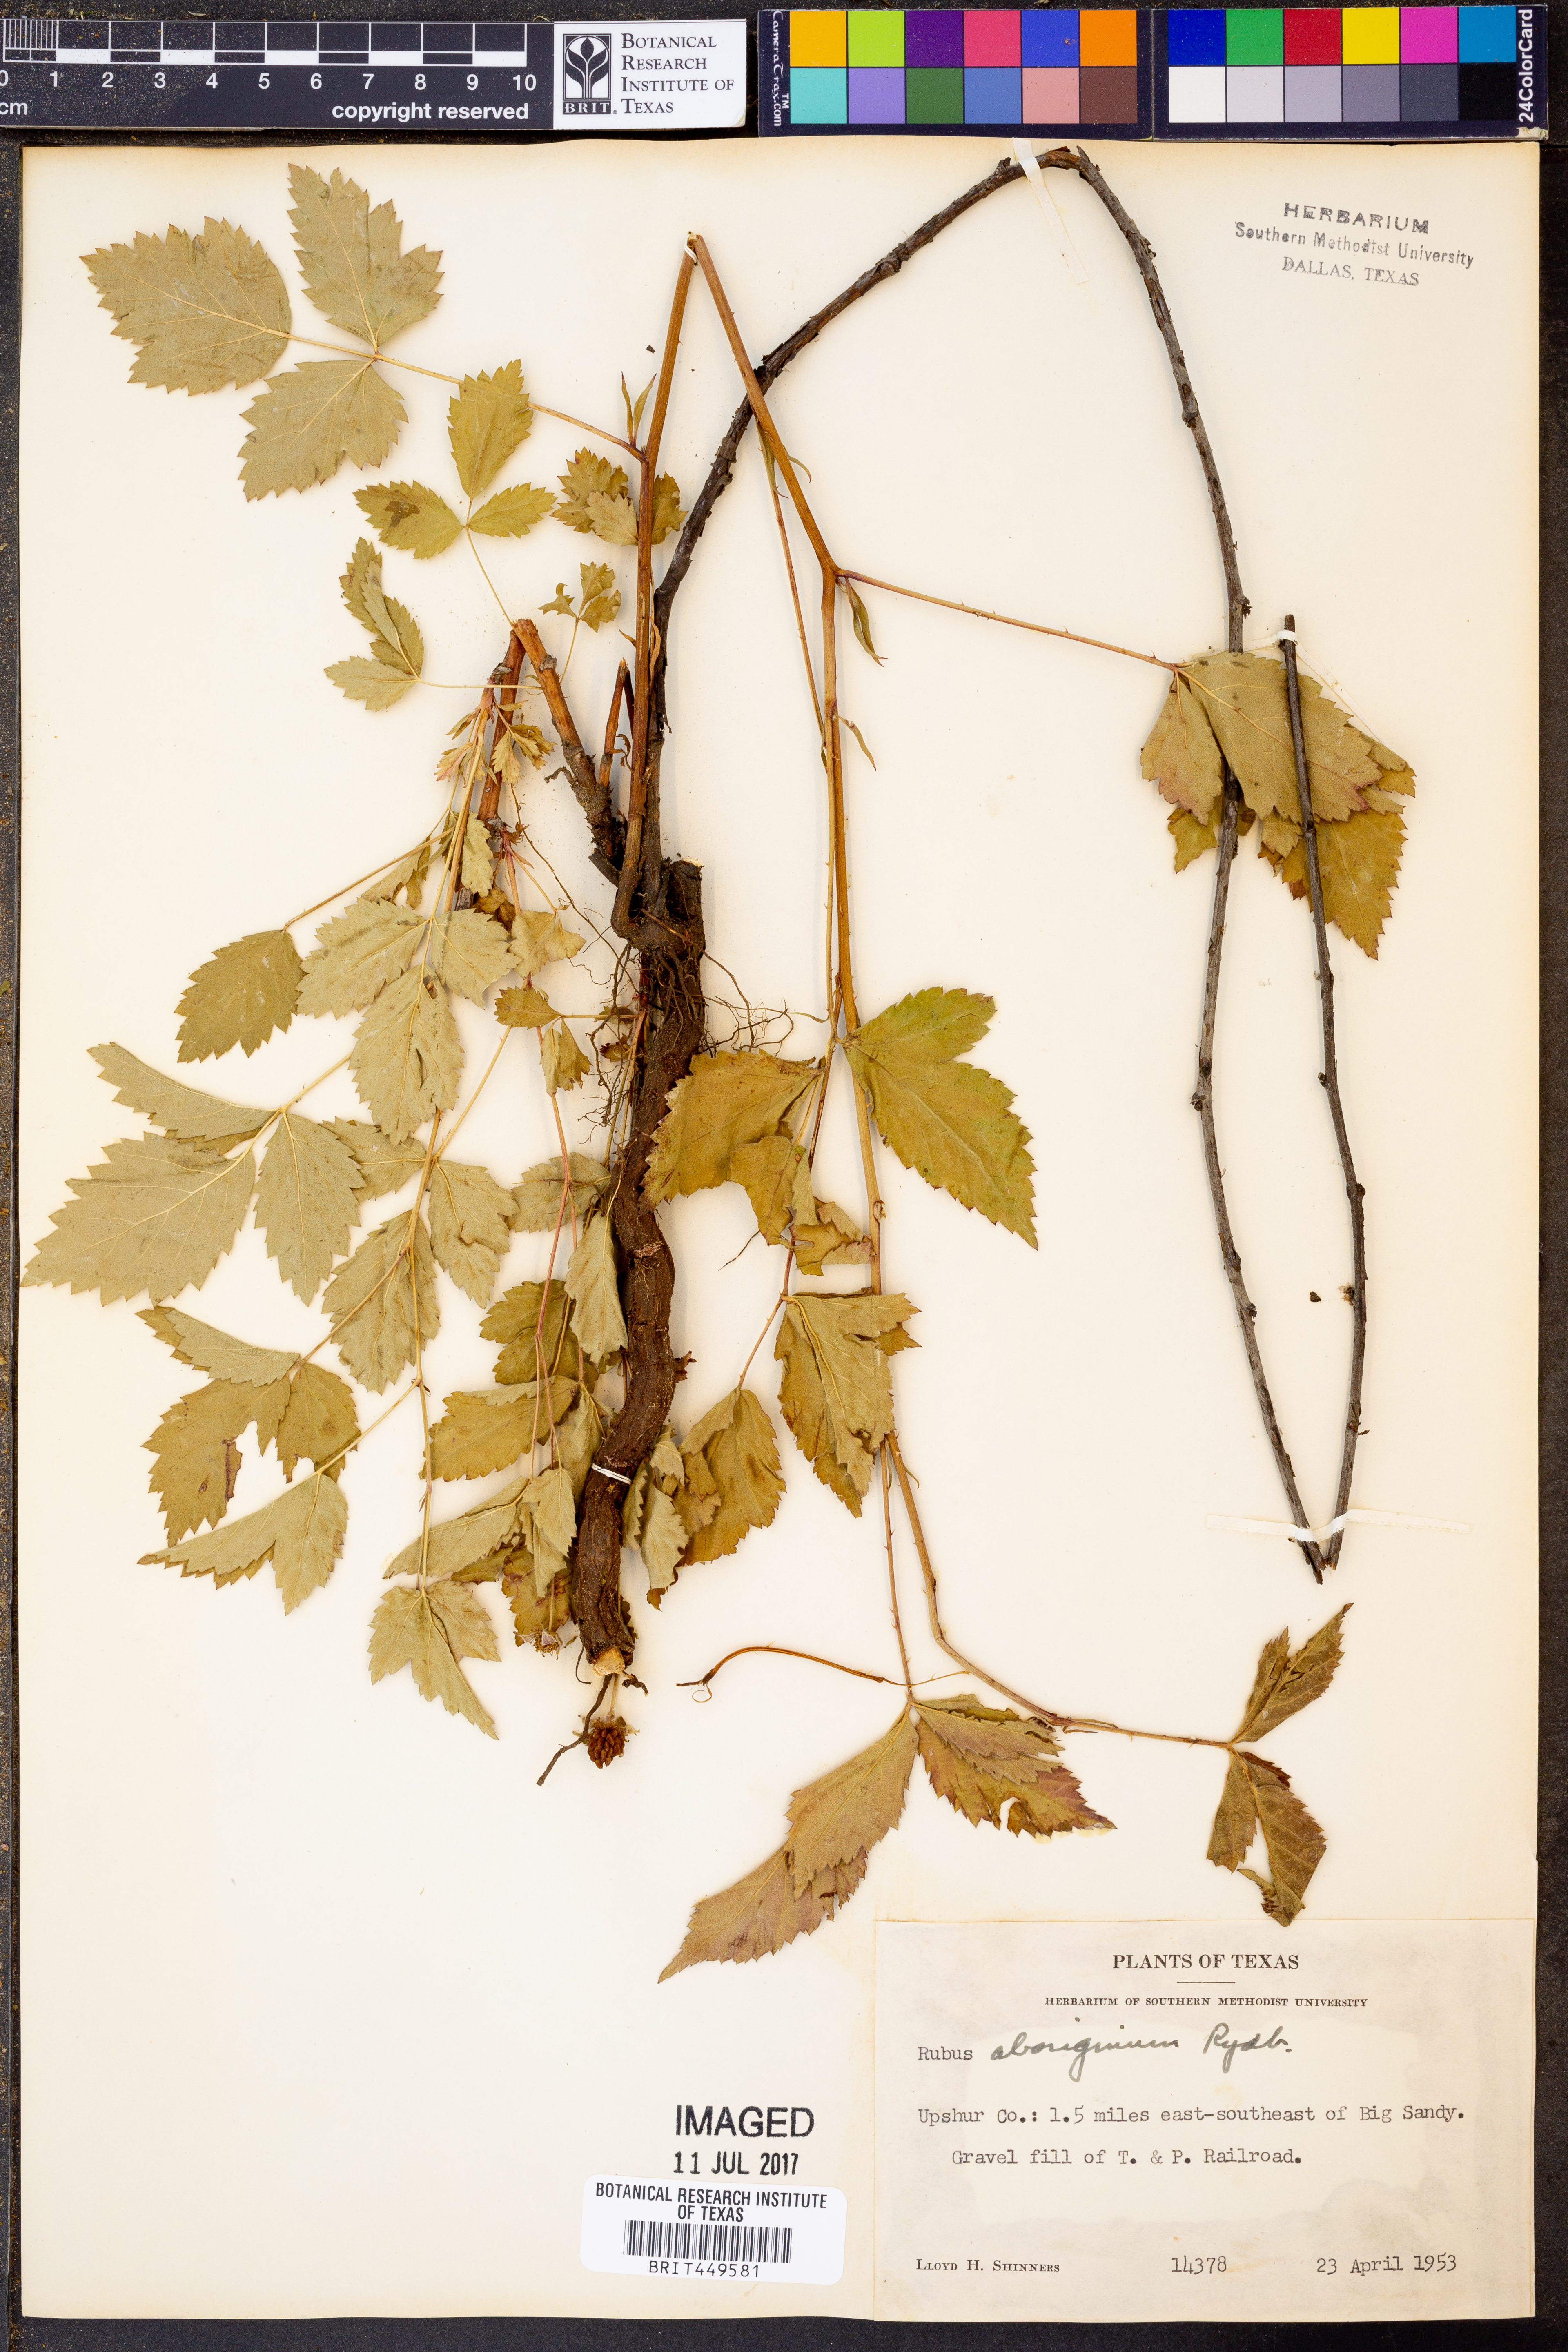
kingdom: Plantae
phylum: Tracheophyta
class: Magnoliopsida
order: Rosales
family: Rosaceae
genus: Rubus
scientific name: Rubus aboriginum
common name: Mayes dewberry
